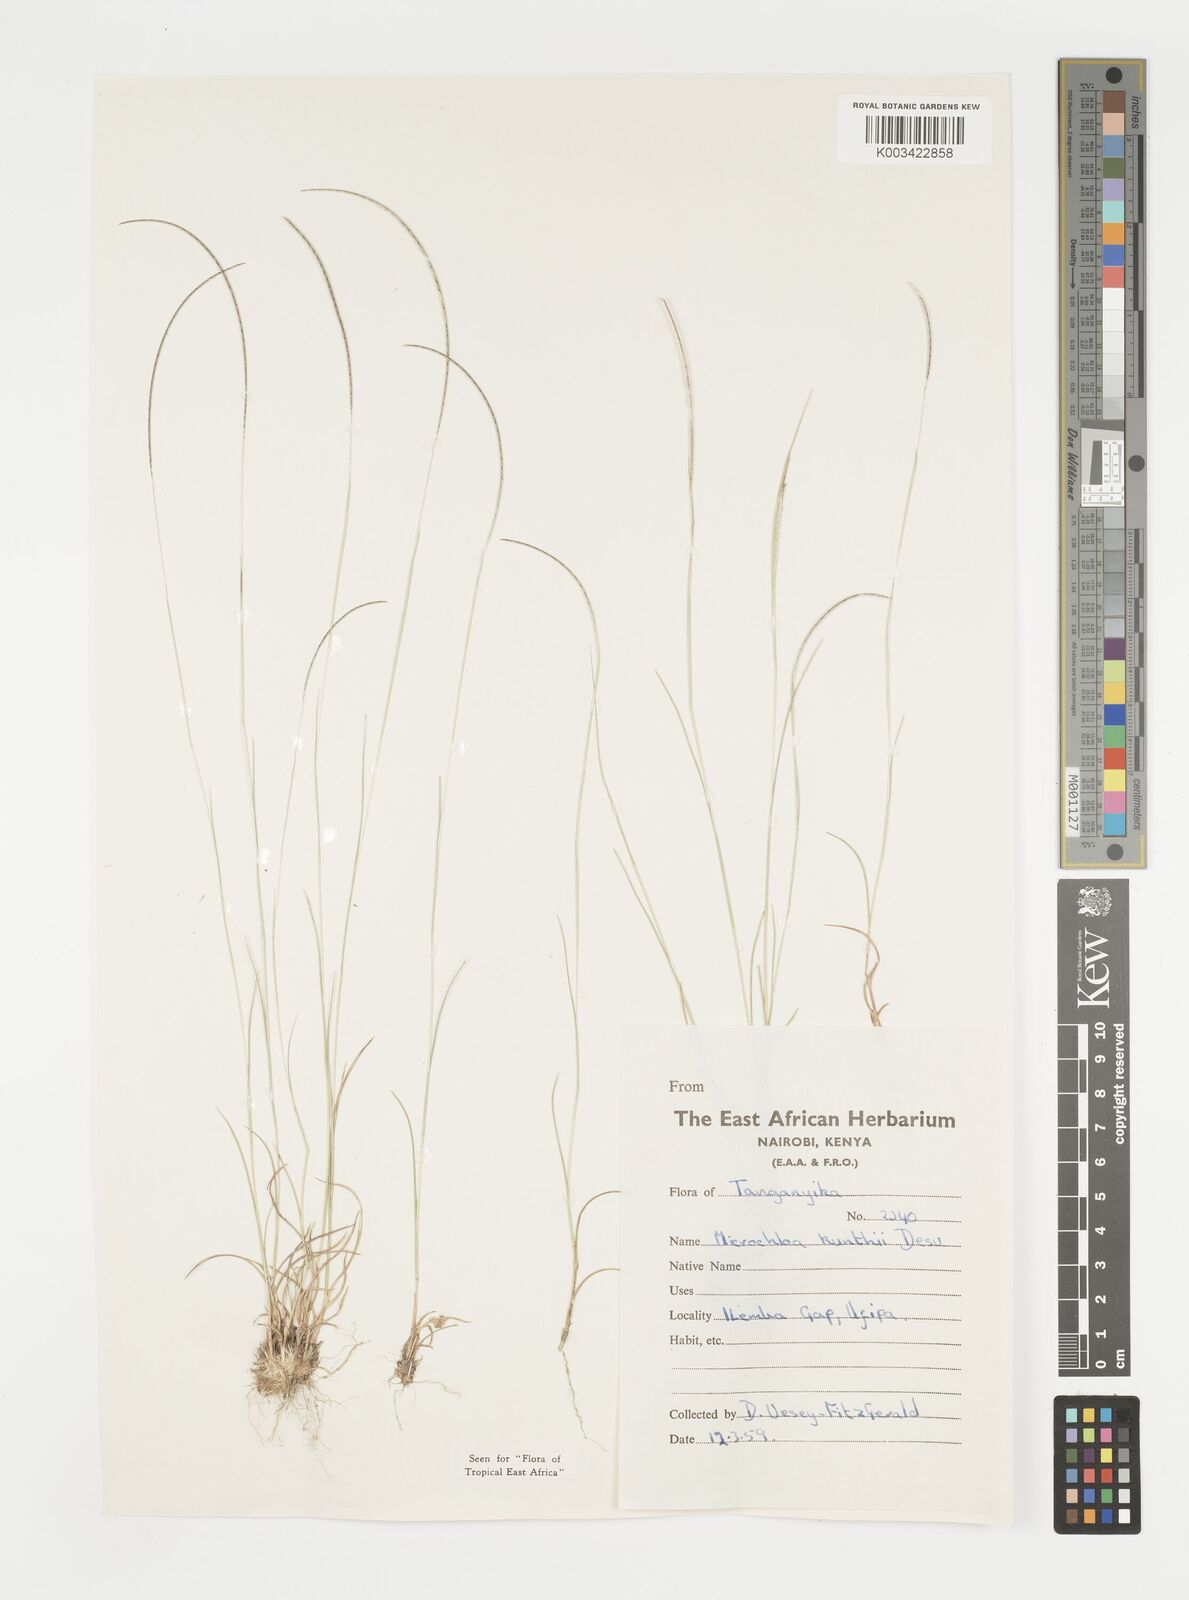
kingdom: Plantae
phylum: Tracheophyta
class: Liliopsida
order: Poales
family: Poaceae
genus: Microchloa
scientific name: Microchloa kunthii
